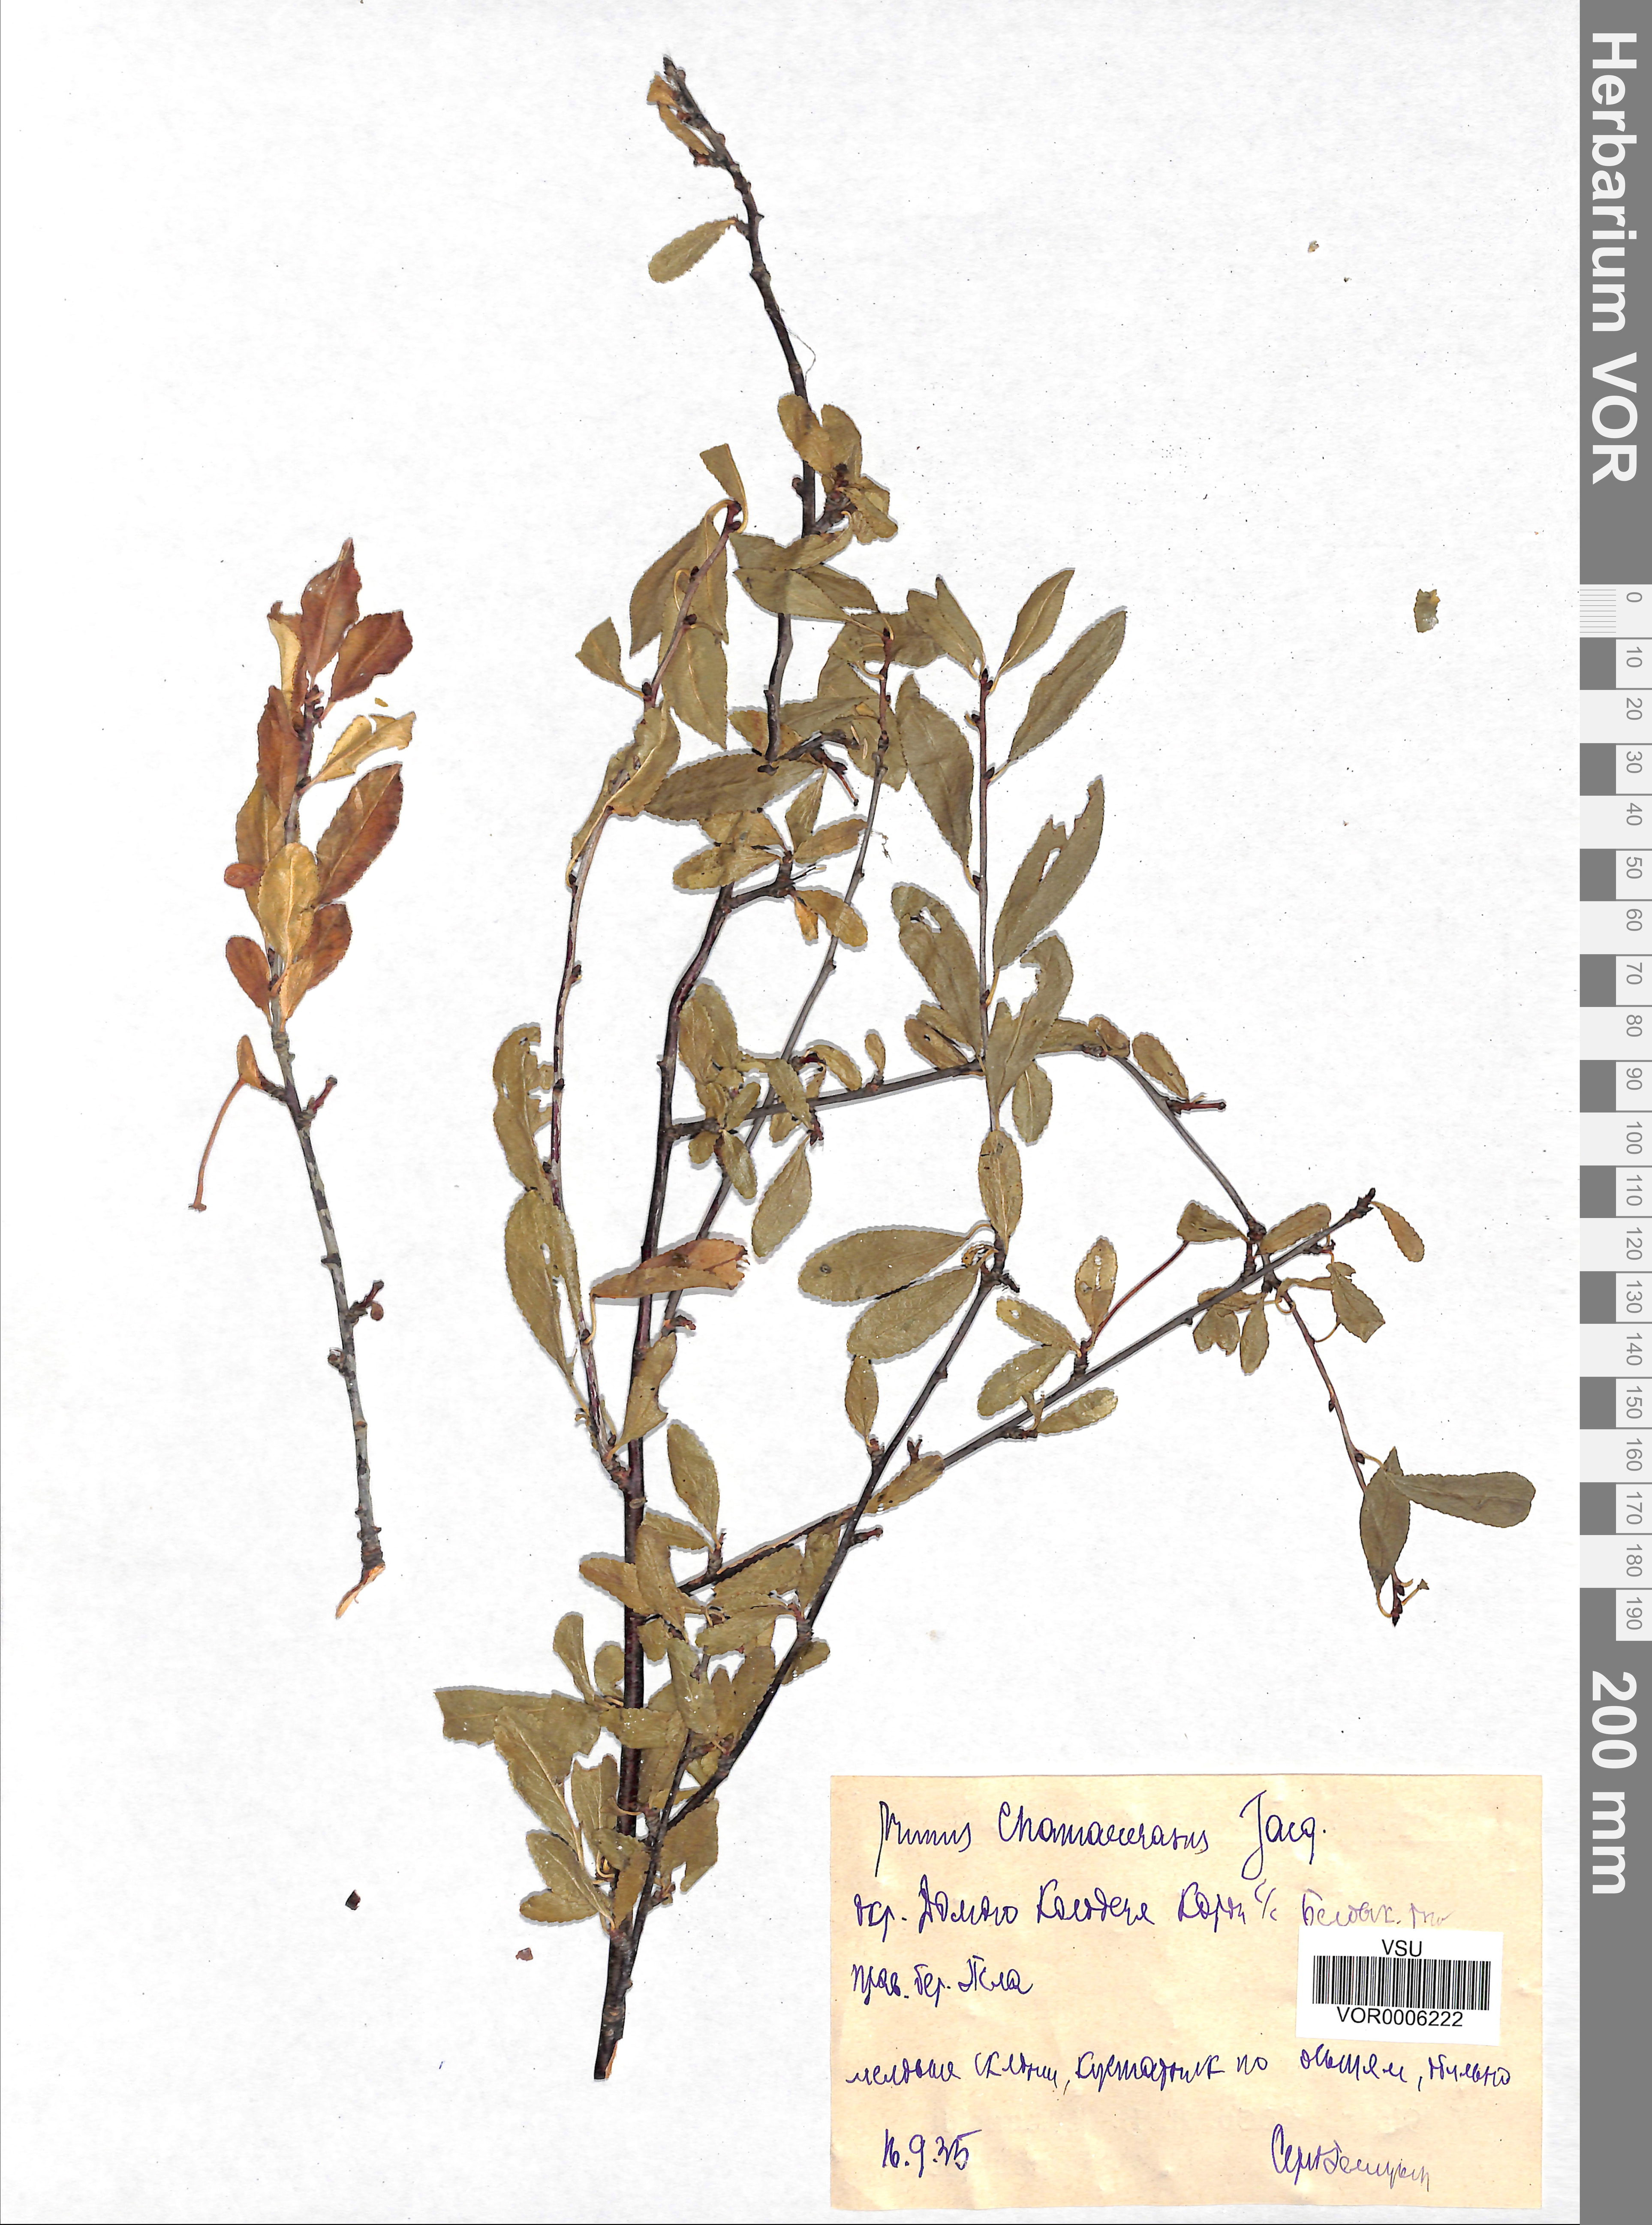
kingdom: Plantae
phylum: Tracheophyta
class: Magnoliopsida
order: Rosales
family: Rosaceae
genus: Prunus
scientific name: Prunus fruticosa
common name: European dwarf cherry
